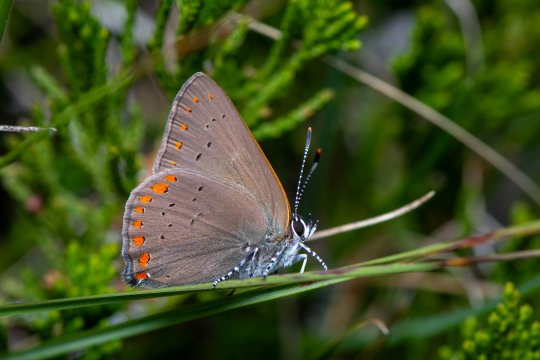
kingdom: Animalia
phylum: Arthropoda
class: Insecta
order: Lepidoptera
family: Lycaenidae
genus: Harkenclenus
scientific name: Harkenclenus titus
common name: Coral Hairstreak
